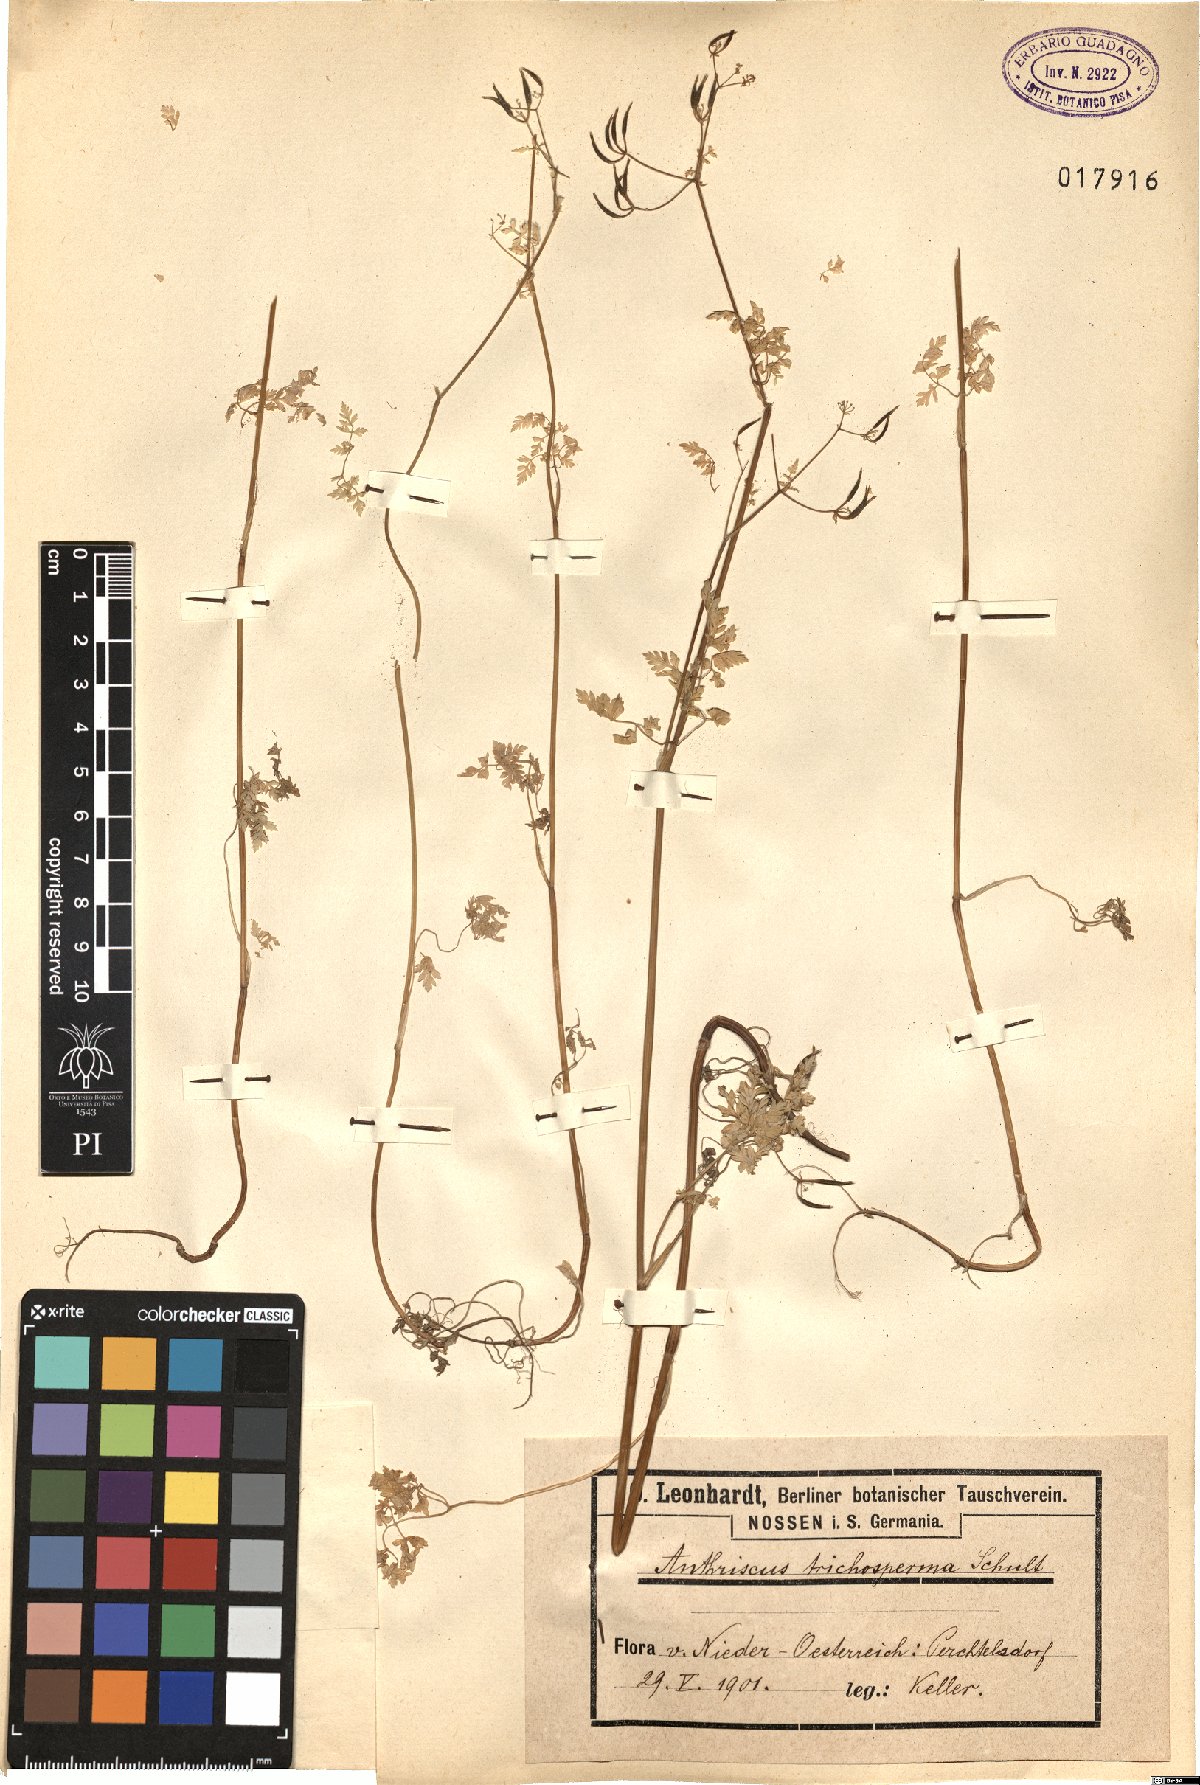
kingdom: Plantae
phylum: Tracheophyta
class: Magnoliopsida
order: Apiales
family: Apiaceae
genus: Anthriscus
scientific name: Anthriscus cerefolium
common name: Garden chervil
